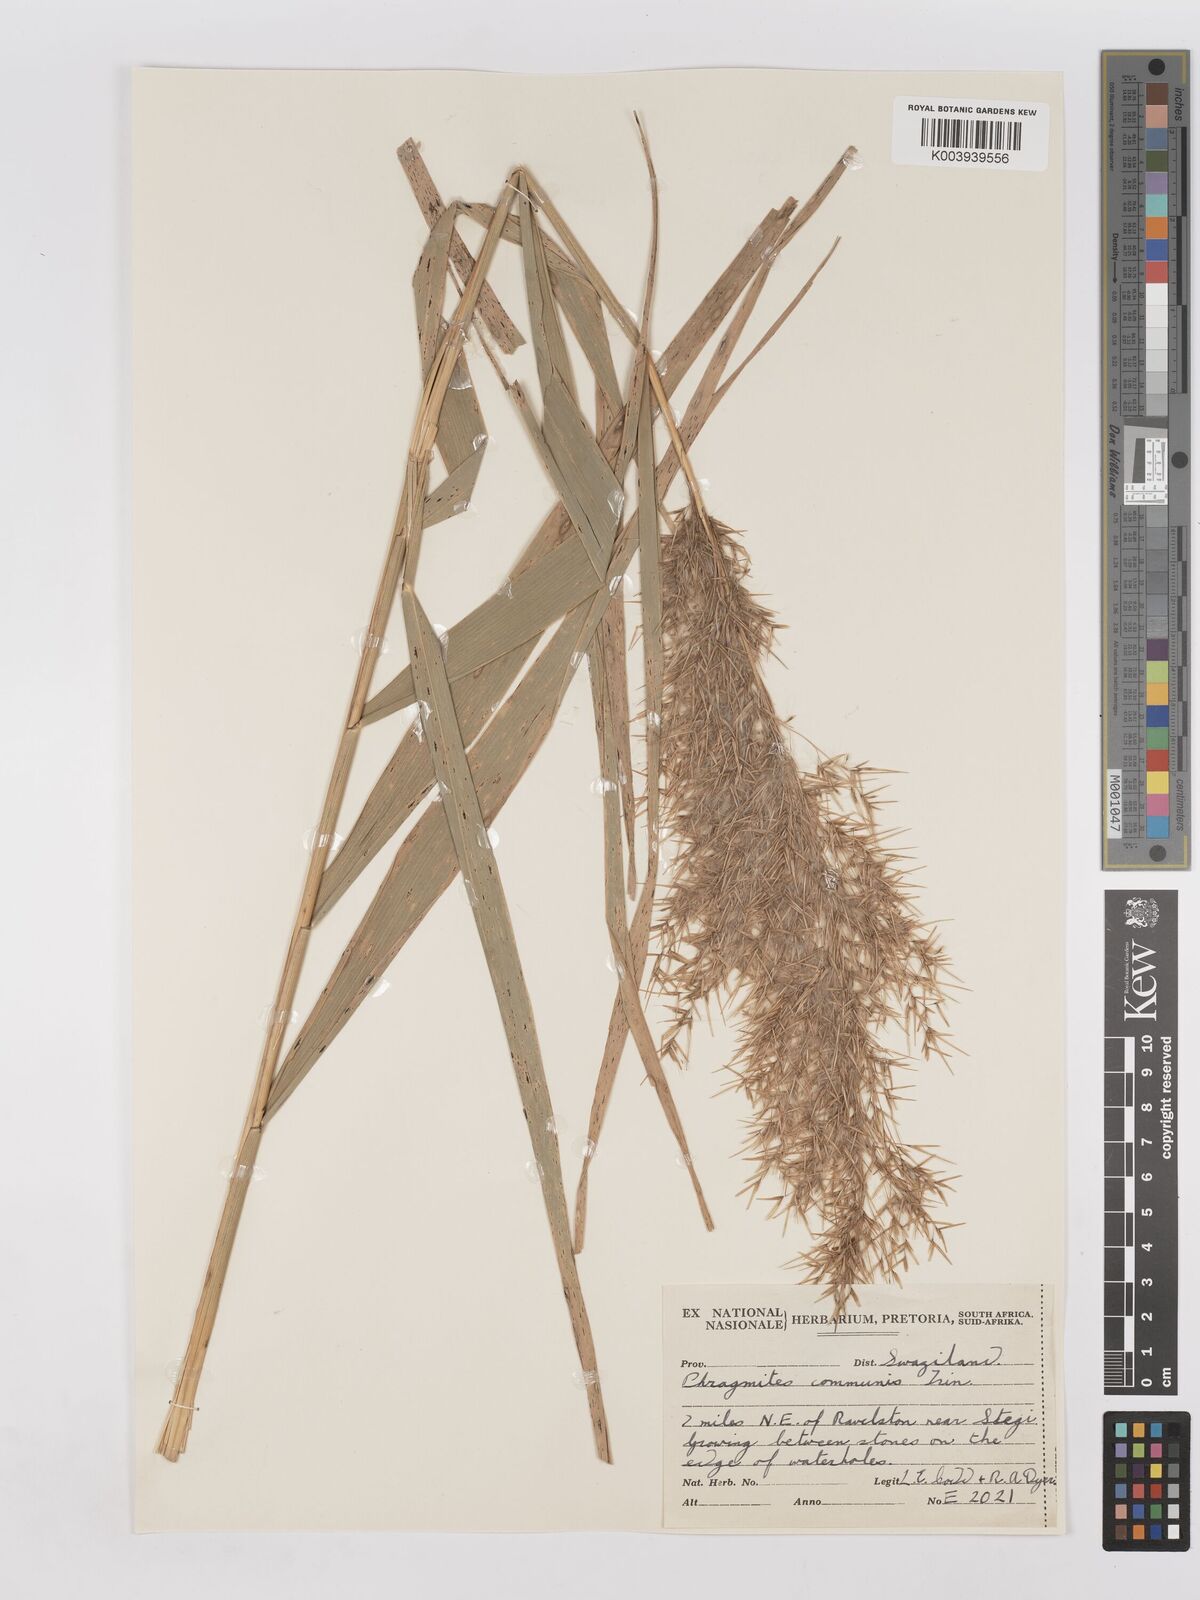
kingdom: Plantae
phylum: Tracheophyta
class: Liliopsida
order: Poales
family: Poaceae
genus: Phragmites
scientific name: Phragmites australis
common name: Common reed
